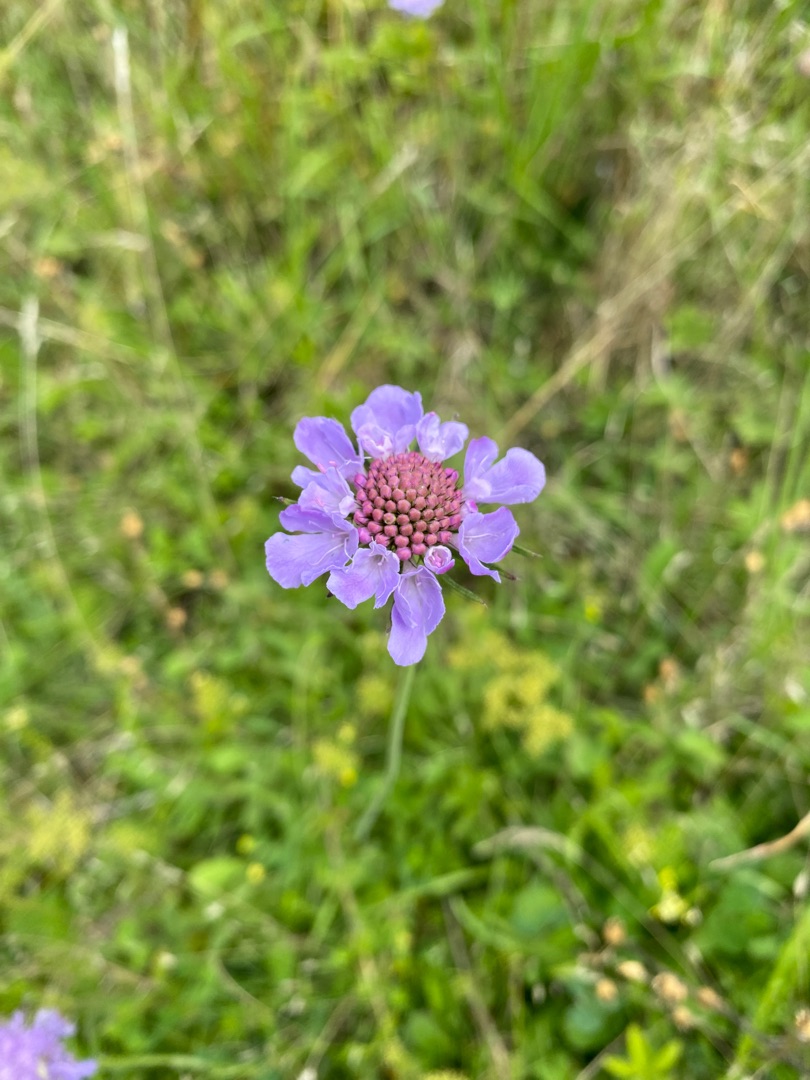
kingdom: Plantae
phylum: Tracheophyta
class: Magnoliopsida
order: Dipsacales
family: Caprifoliaceae
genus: Scabiosa
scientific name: Scabiosa columbaria
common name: Due-skabiose
